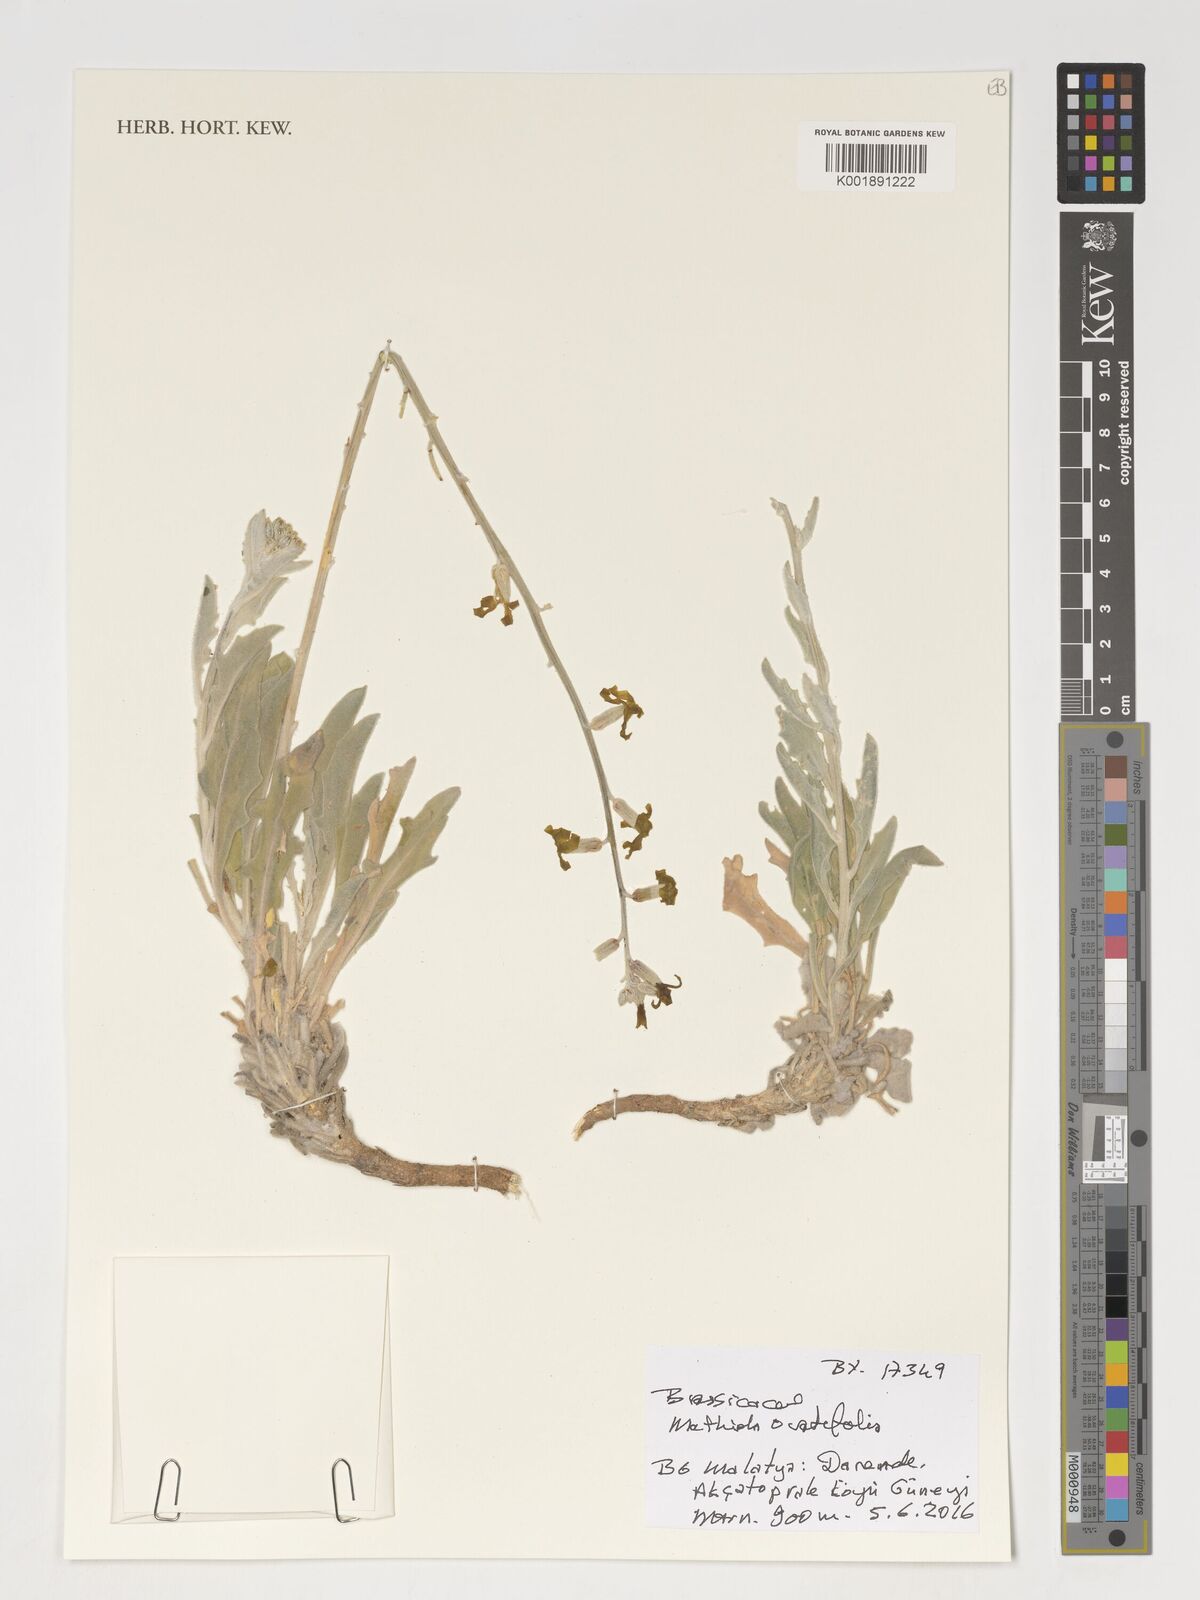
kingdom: Plantae
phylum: Tracheophyta
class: Magnoliopsida
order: Brassicales
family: Brassicaceae
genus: Matthiola
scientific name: Matthiola ovatifolia
